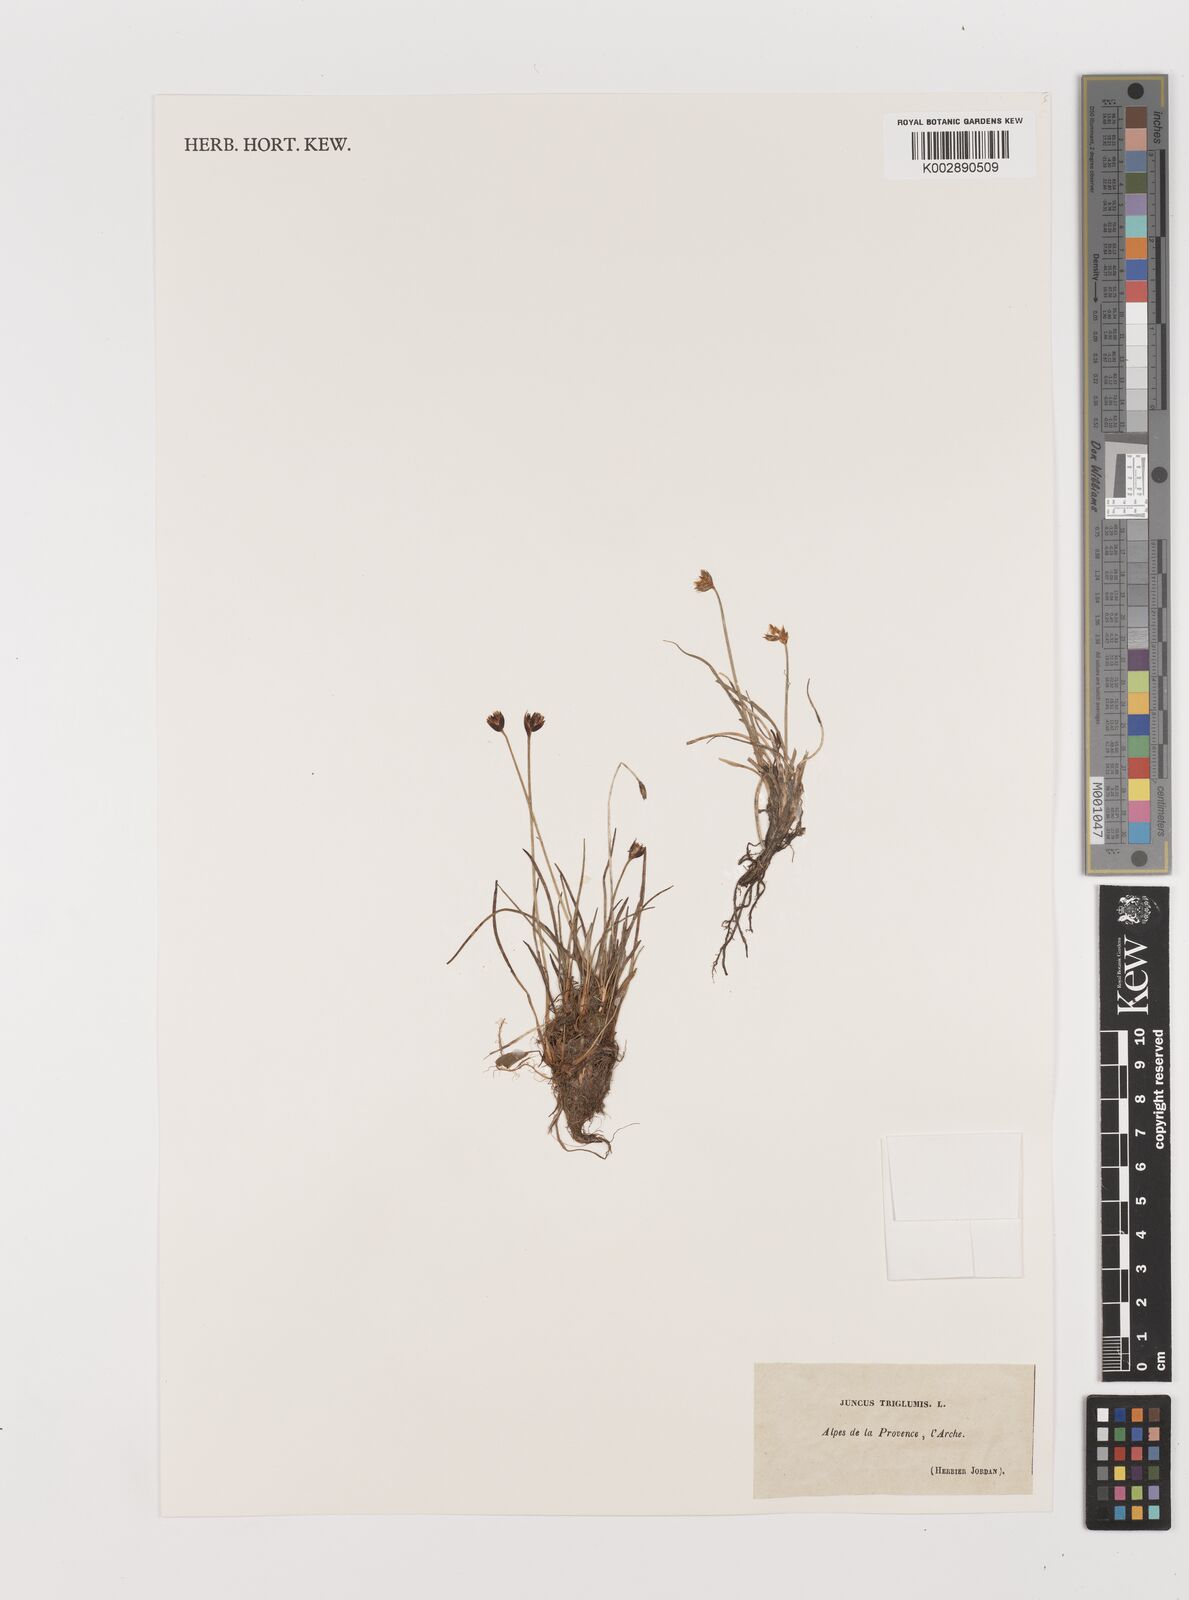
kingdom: Plantae
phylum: Tracheophyta
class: Liliopsida
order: Poales
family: Juncaceae
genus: Juncus
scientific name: Juncus triglumis
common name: Three-flowered rush
